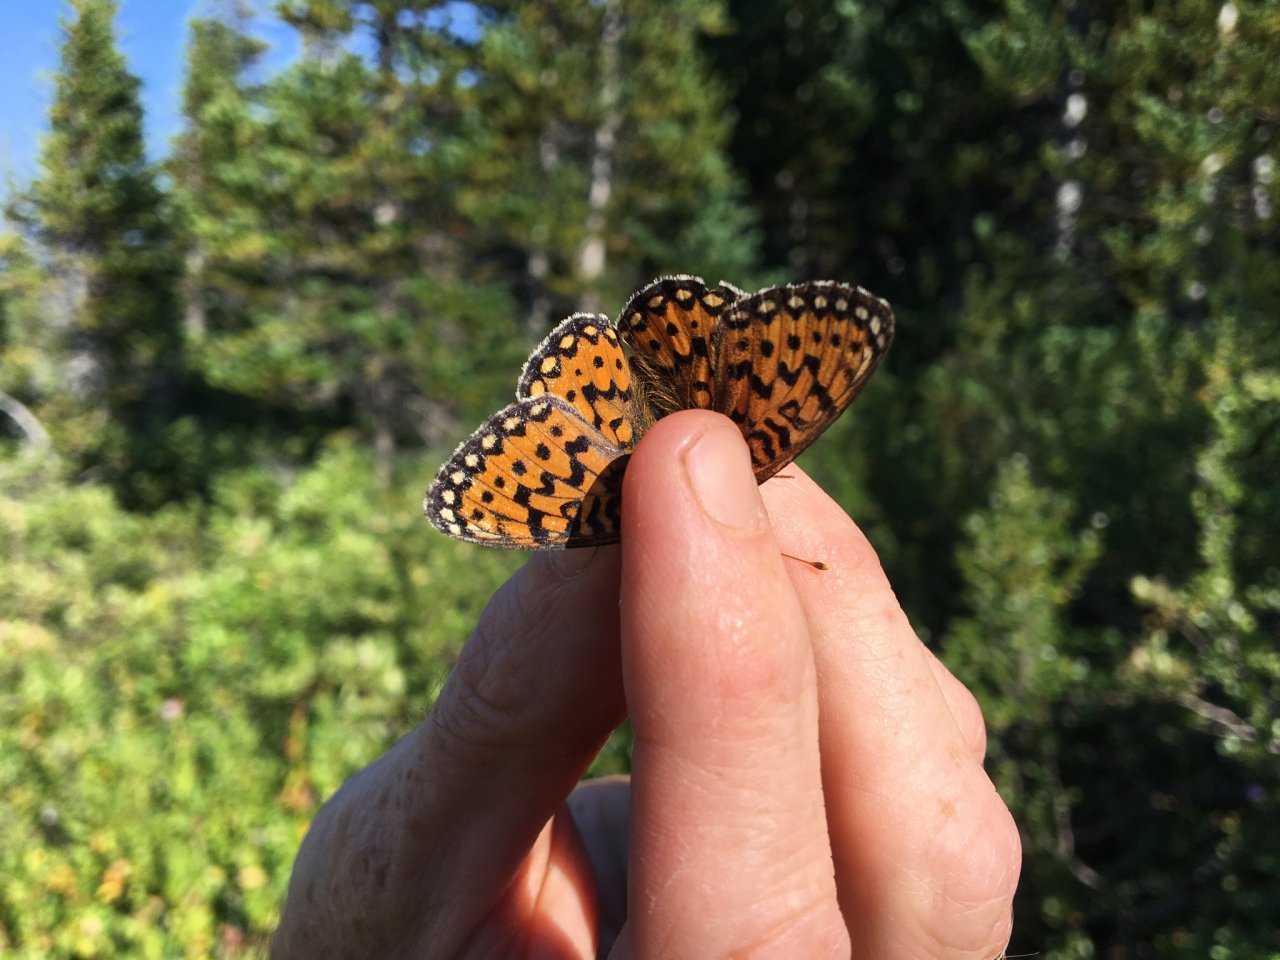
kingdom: Animalia
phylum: Arthropoda
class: Insecta
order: Lepidoptera
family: Nymphalidae
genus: Speyeria
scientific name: Speyeria mormonia
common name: Mormon Fritillary
